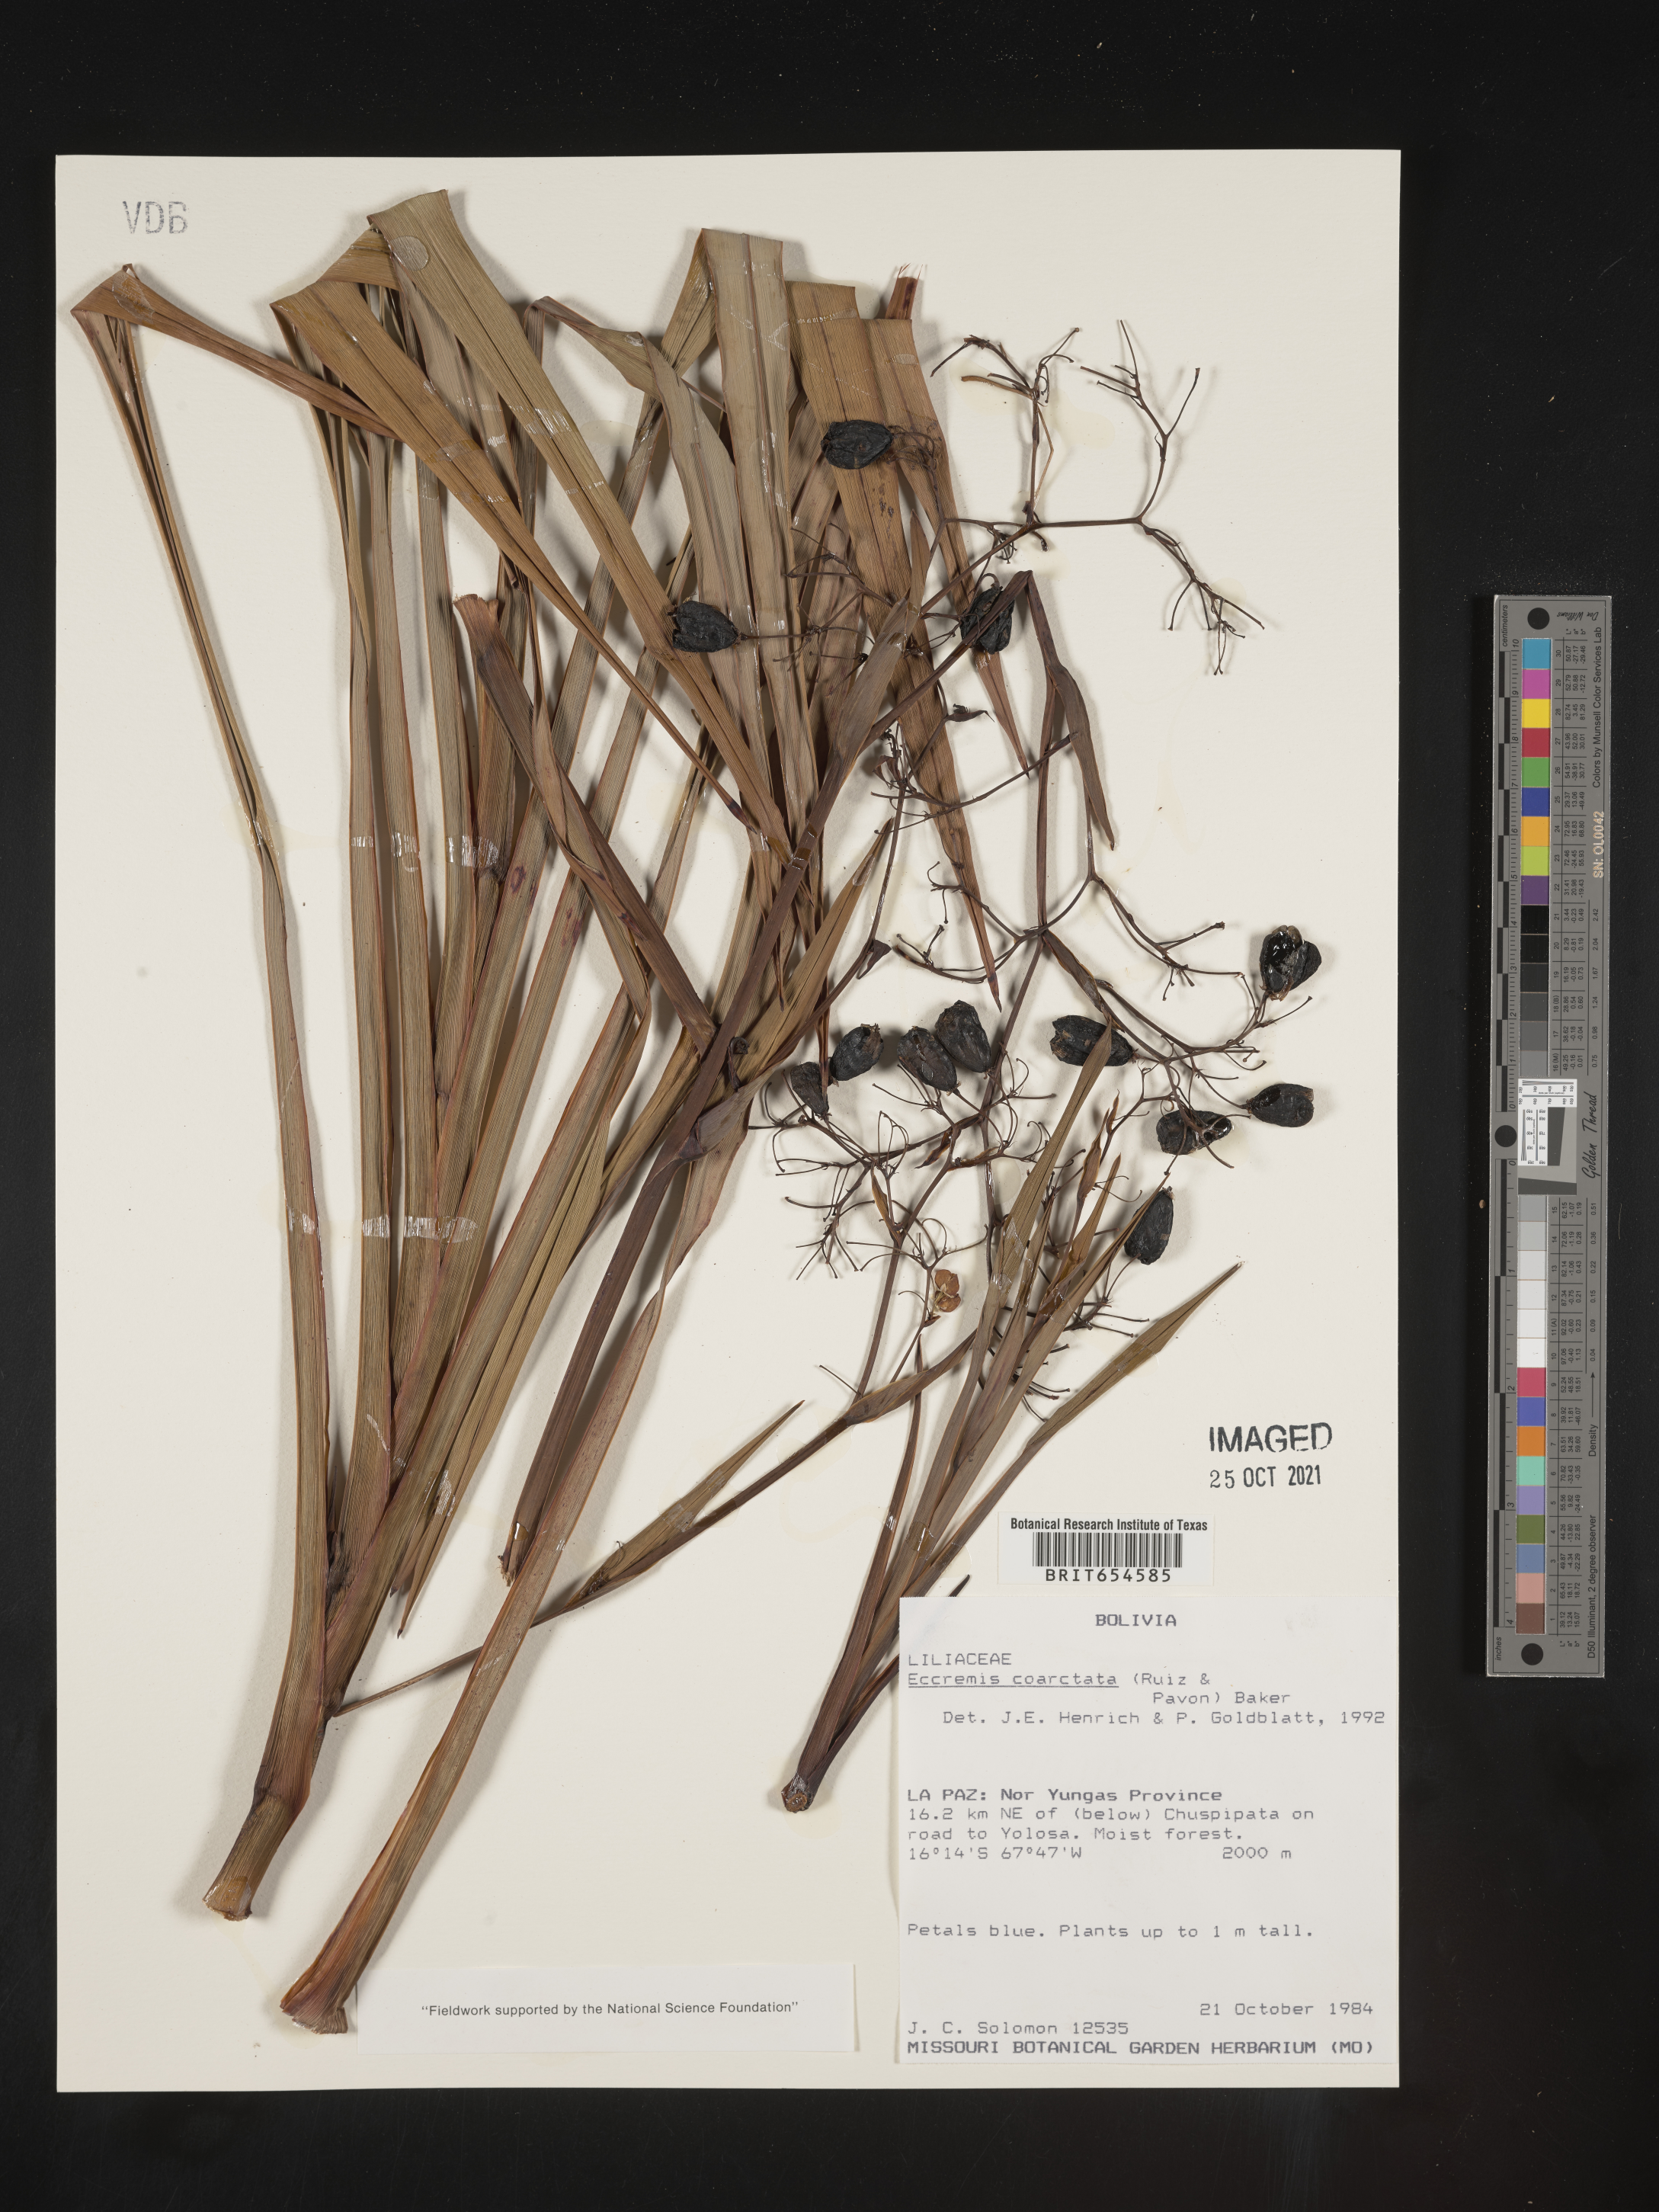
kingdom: Plantae
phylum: Tracheophyta
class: Liliopsida
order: Asparagales
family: Asphodelaceae
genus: Excremis
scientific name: Excremis coarctata
